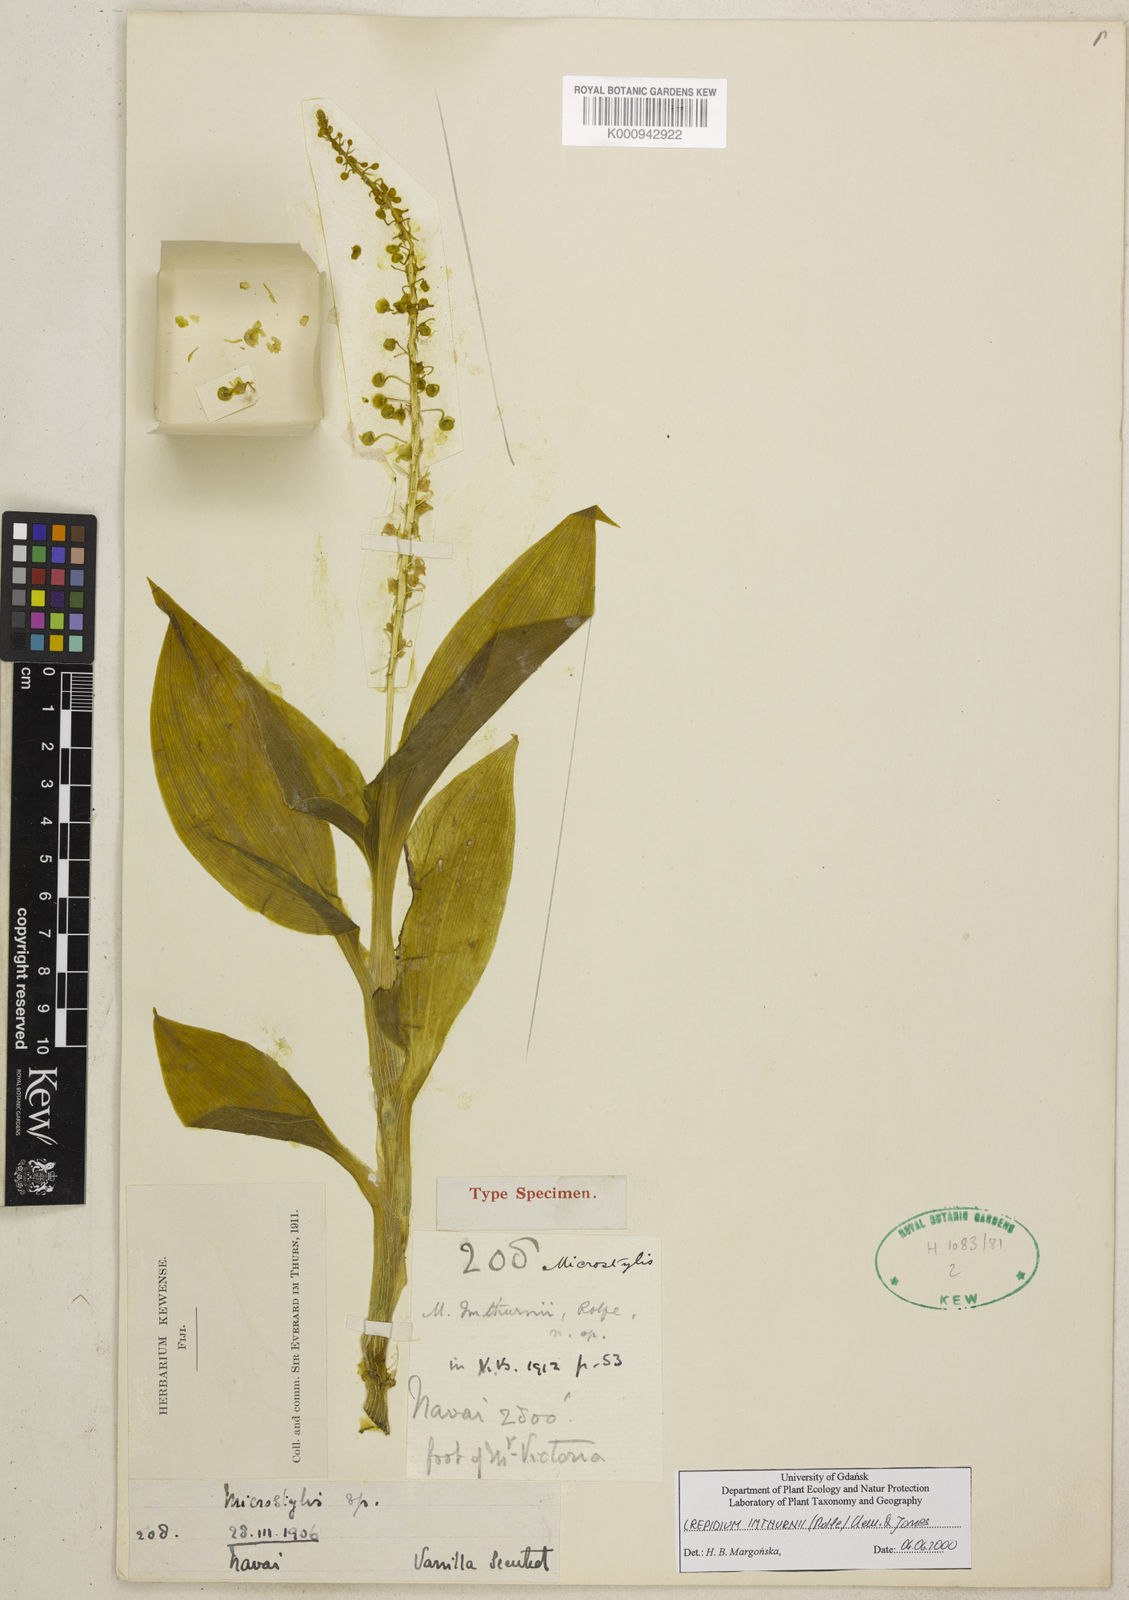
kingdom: Plantae
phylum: Tracheophyta
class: Liliopsida
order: Asparagales
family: Orchidaceae
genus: Crepidium
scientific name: Crepidium imthurnii
